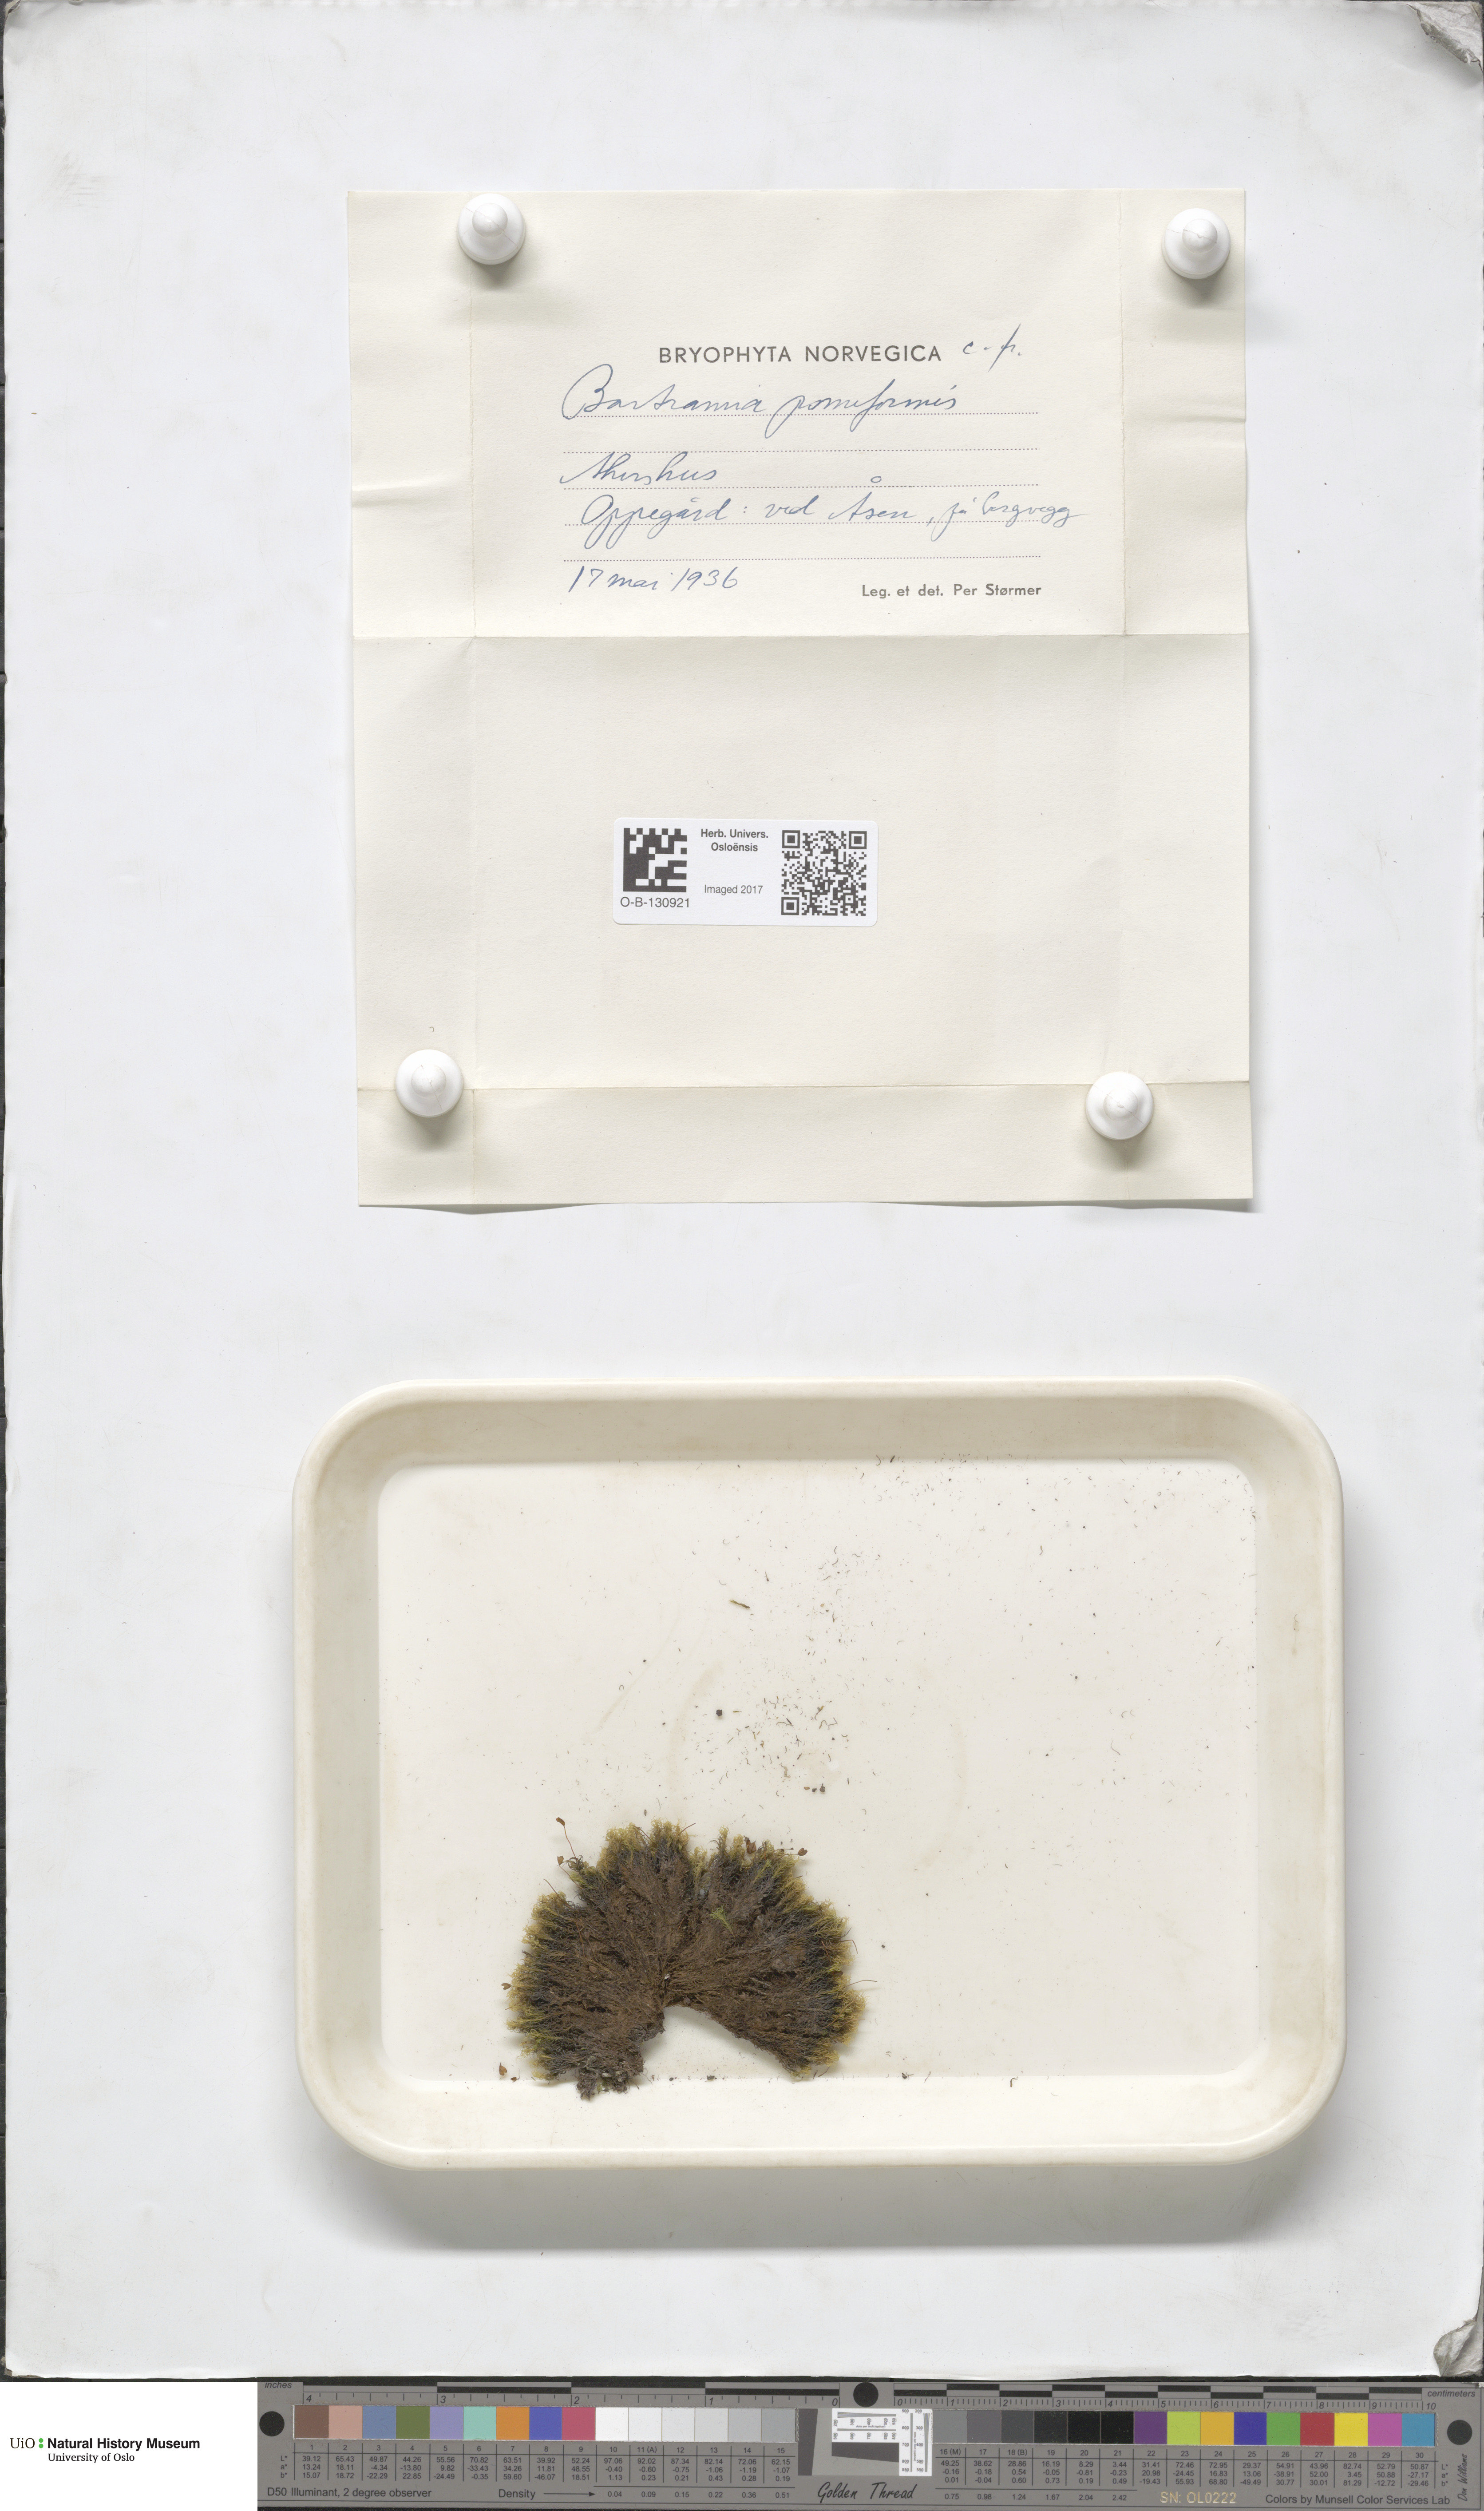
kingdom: Plantae
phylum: Bryophyta
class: Bryopsida
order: Bartramiales
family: Bartramiaceae
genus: Bartramia
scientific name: Bartramia pomiformis
